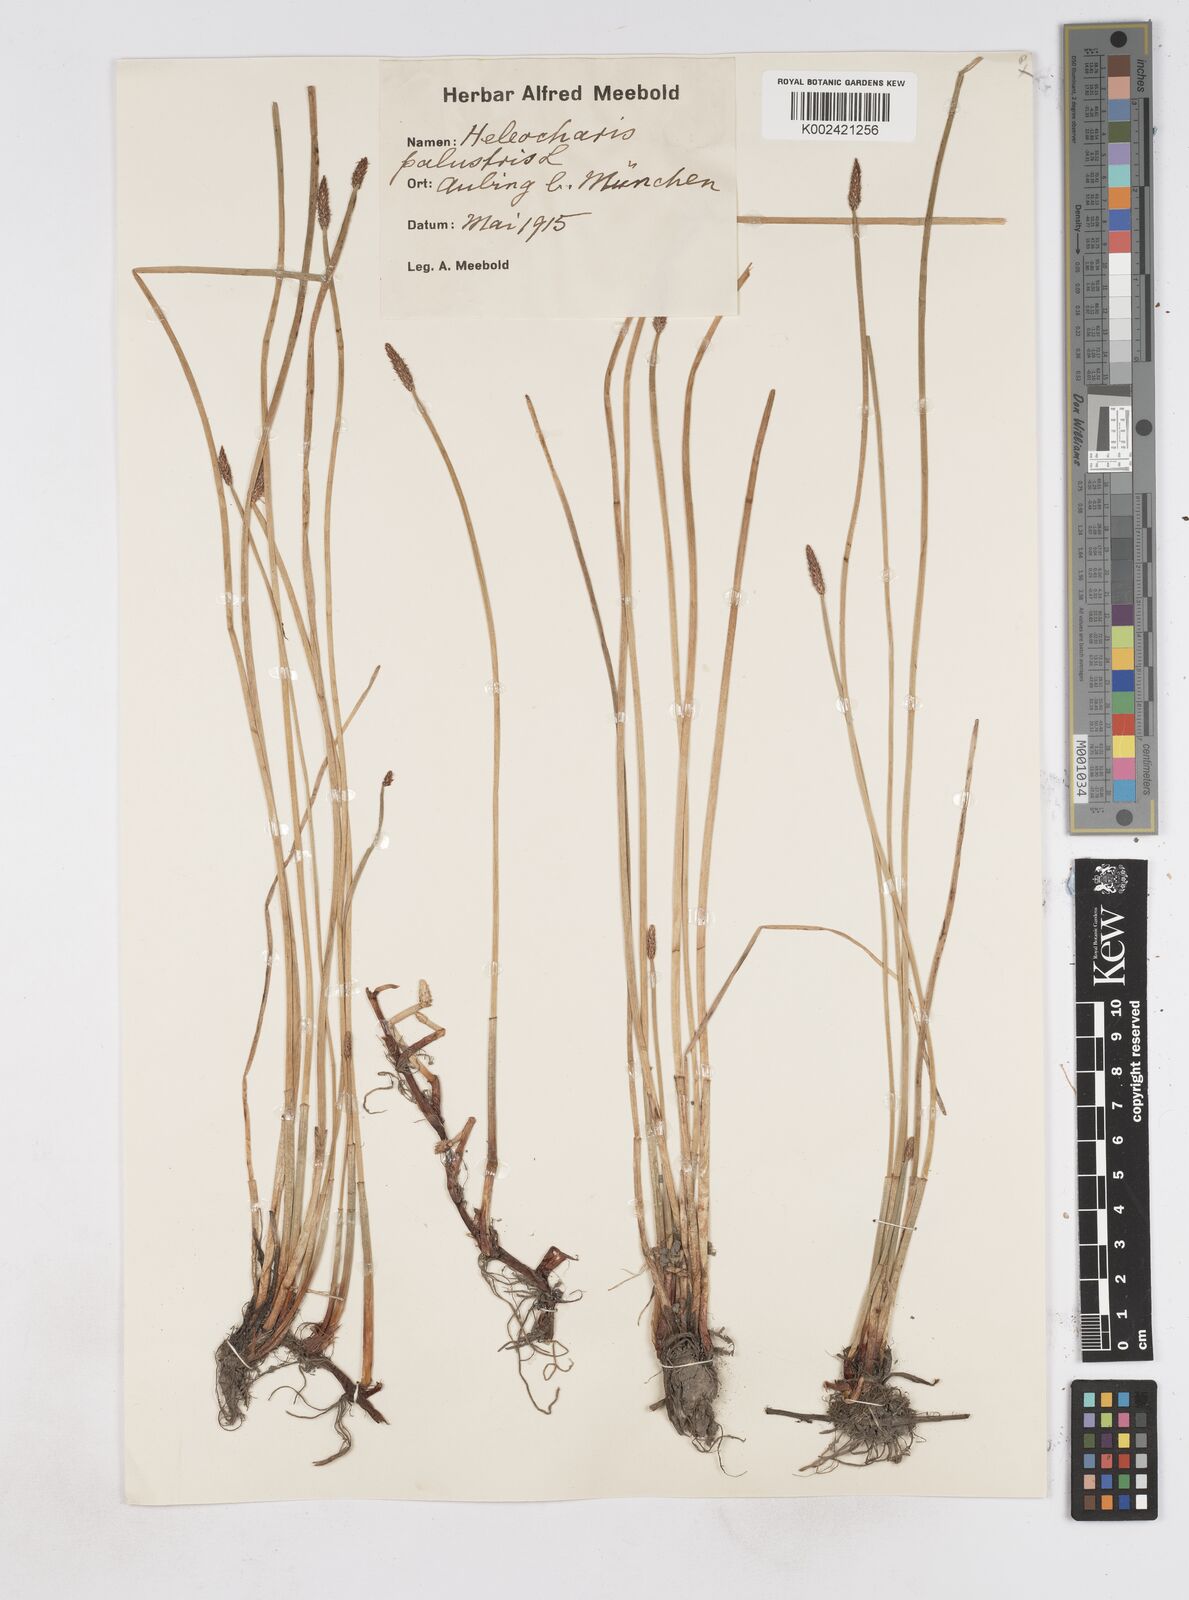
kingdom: Plantae
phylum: Tracheophyta
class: Liliopsida
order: Poales
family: Cyperaceae
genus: Eleocharis
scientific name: Eleocharis palustris
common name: Common spike-rush
